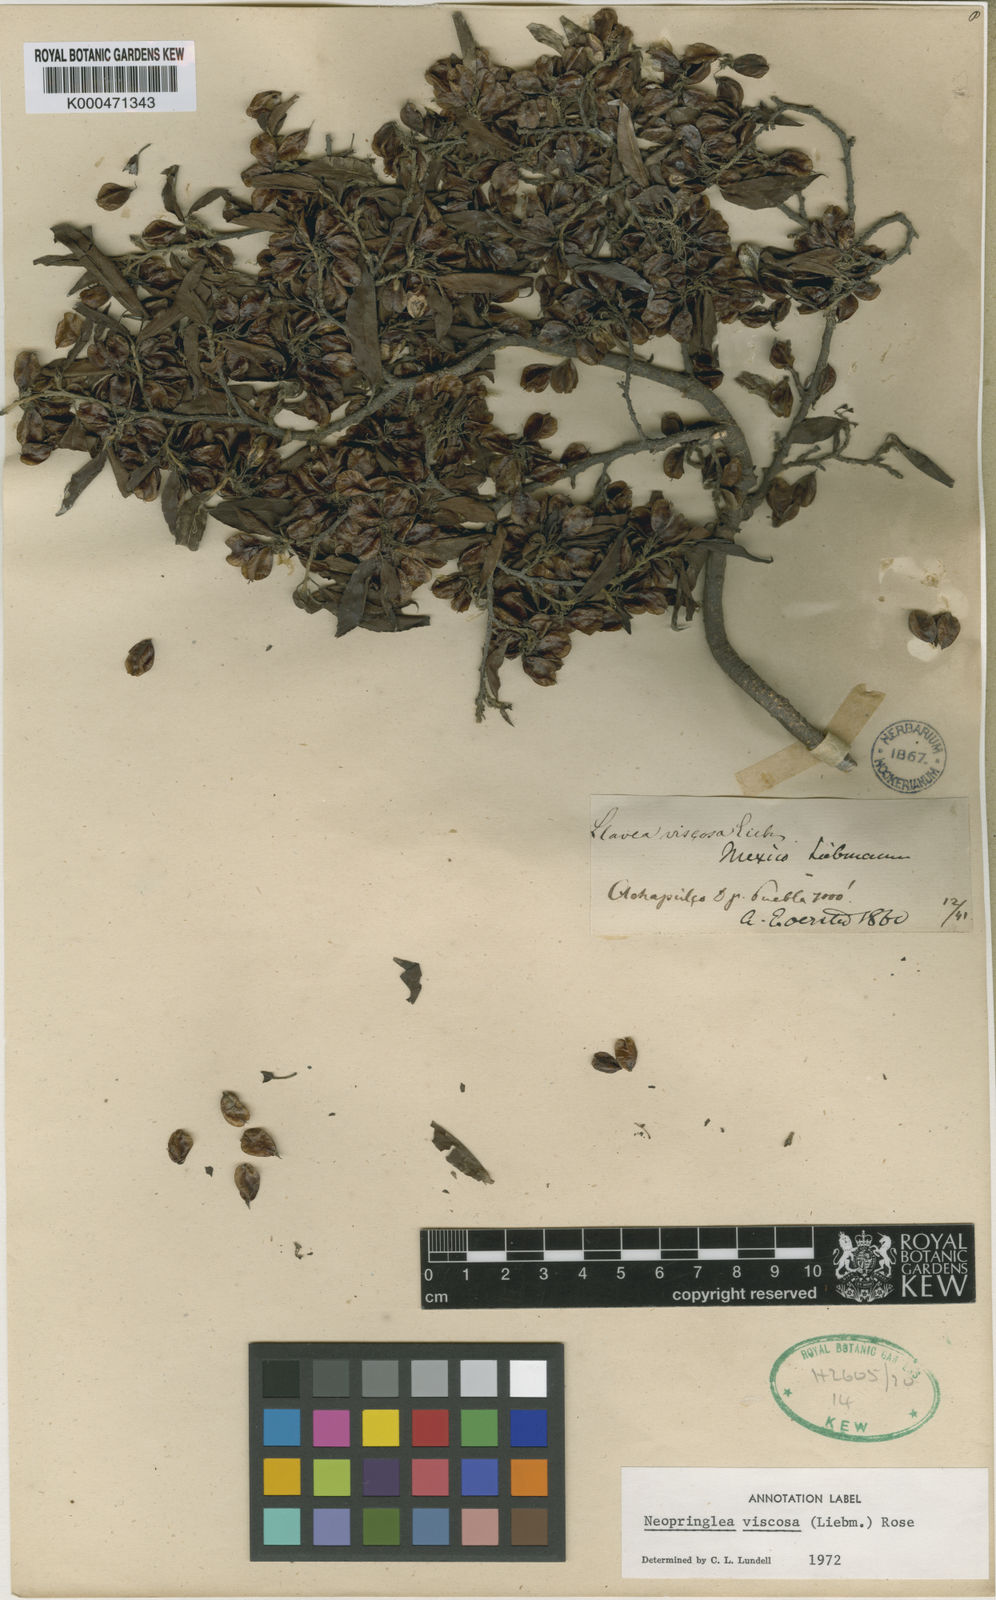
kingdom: Plantae
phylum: Tracheophyta
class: Magnoliopsida
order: Malpighiales
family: Salicaceae
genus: Neopringlea
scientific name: Neopringlea viscosa
